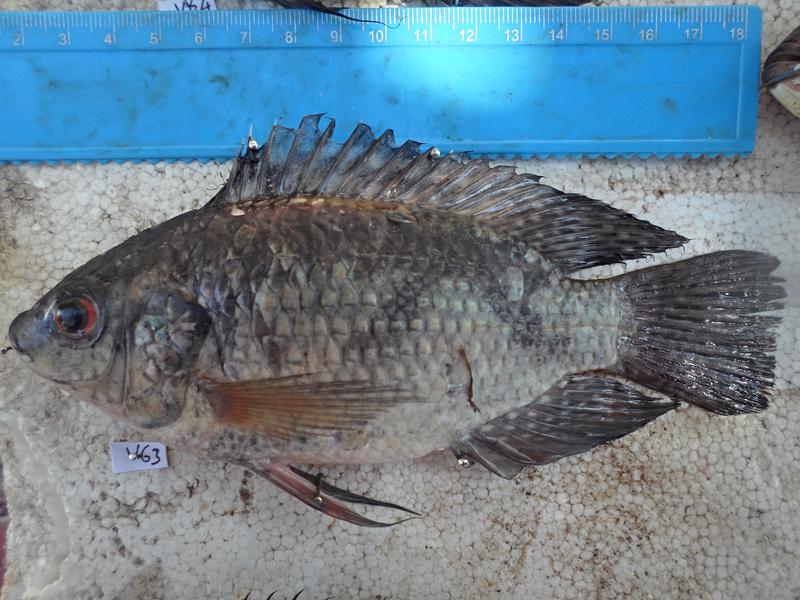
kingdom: Animalia
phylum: Chordata
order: Perciformes
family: Cichlidae
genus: Oreochromis
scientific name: Oreochromis leucostictus
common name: Blue spotted tilapia
